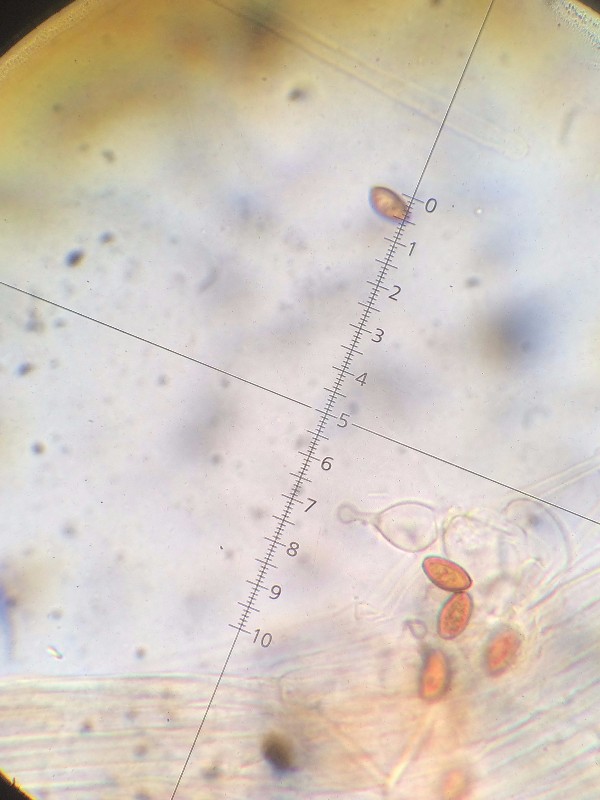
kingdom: Fungi
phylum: Basidiomycota
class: Agaricomycetes
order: Agaricales
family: Bolbitiaceae
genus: Conocybe
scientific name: Conocybe tenera
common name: rank keglehat
